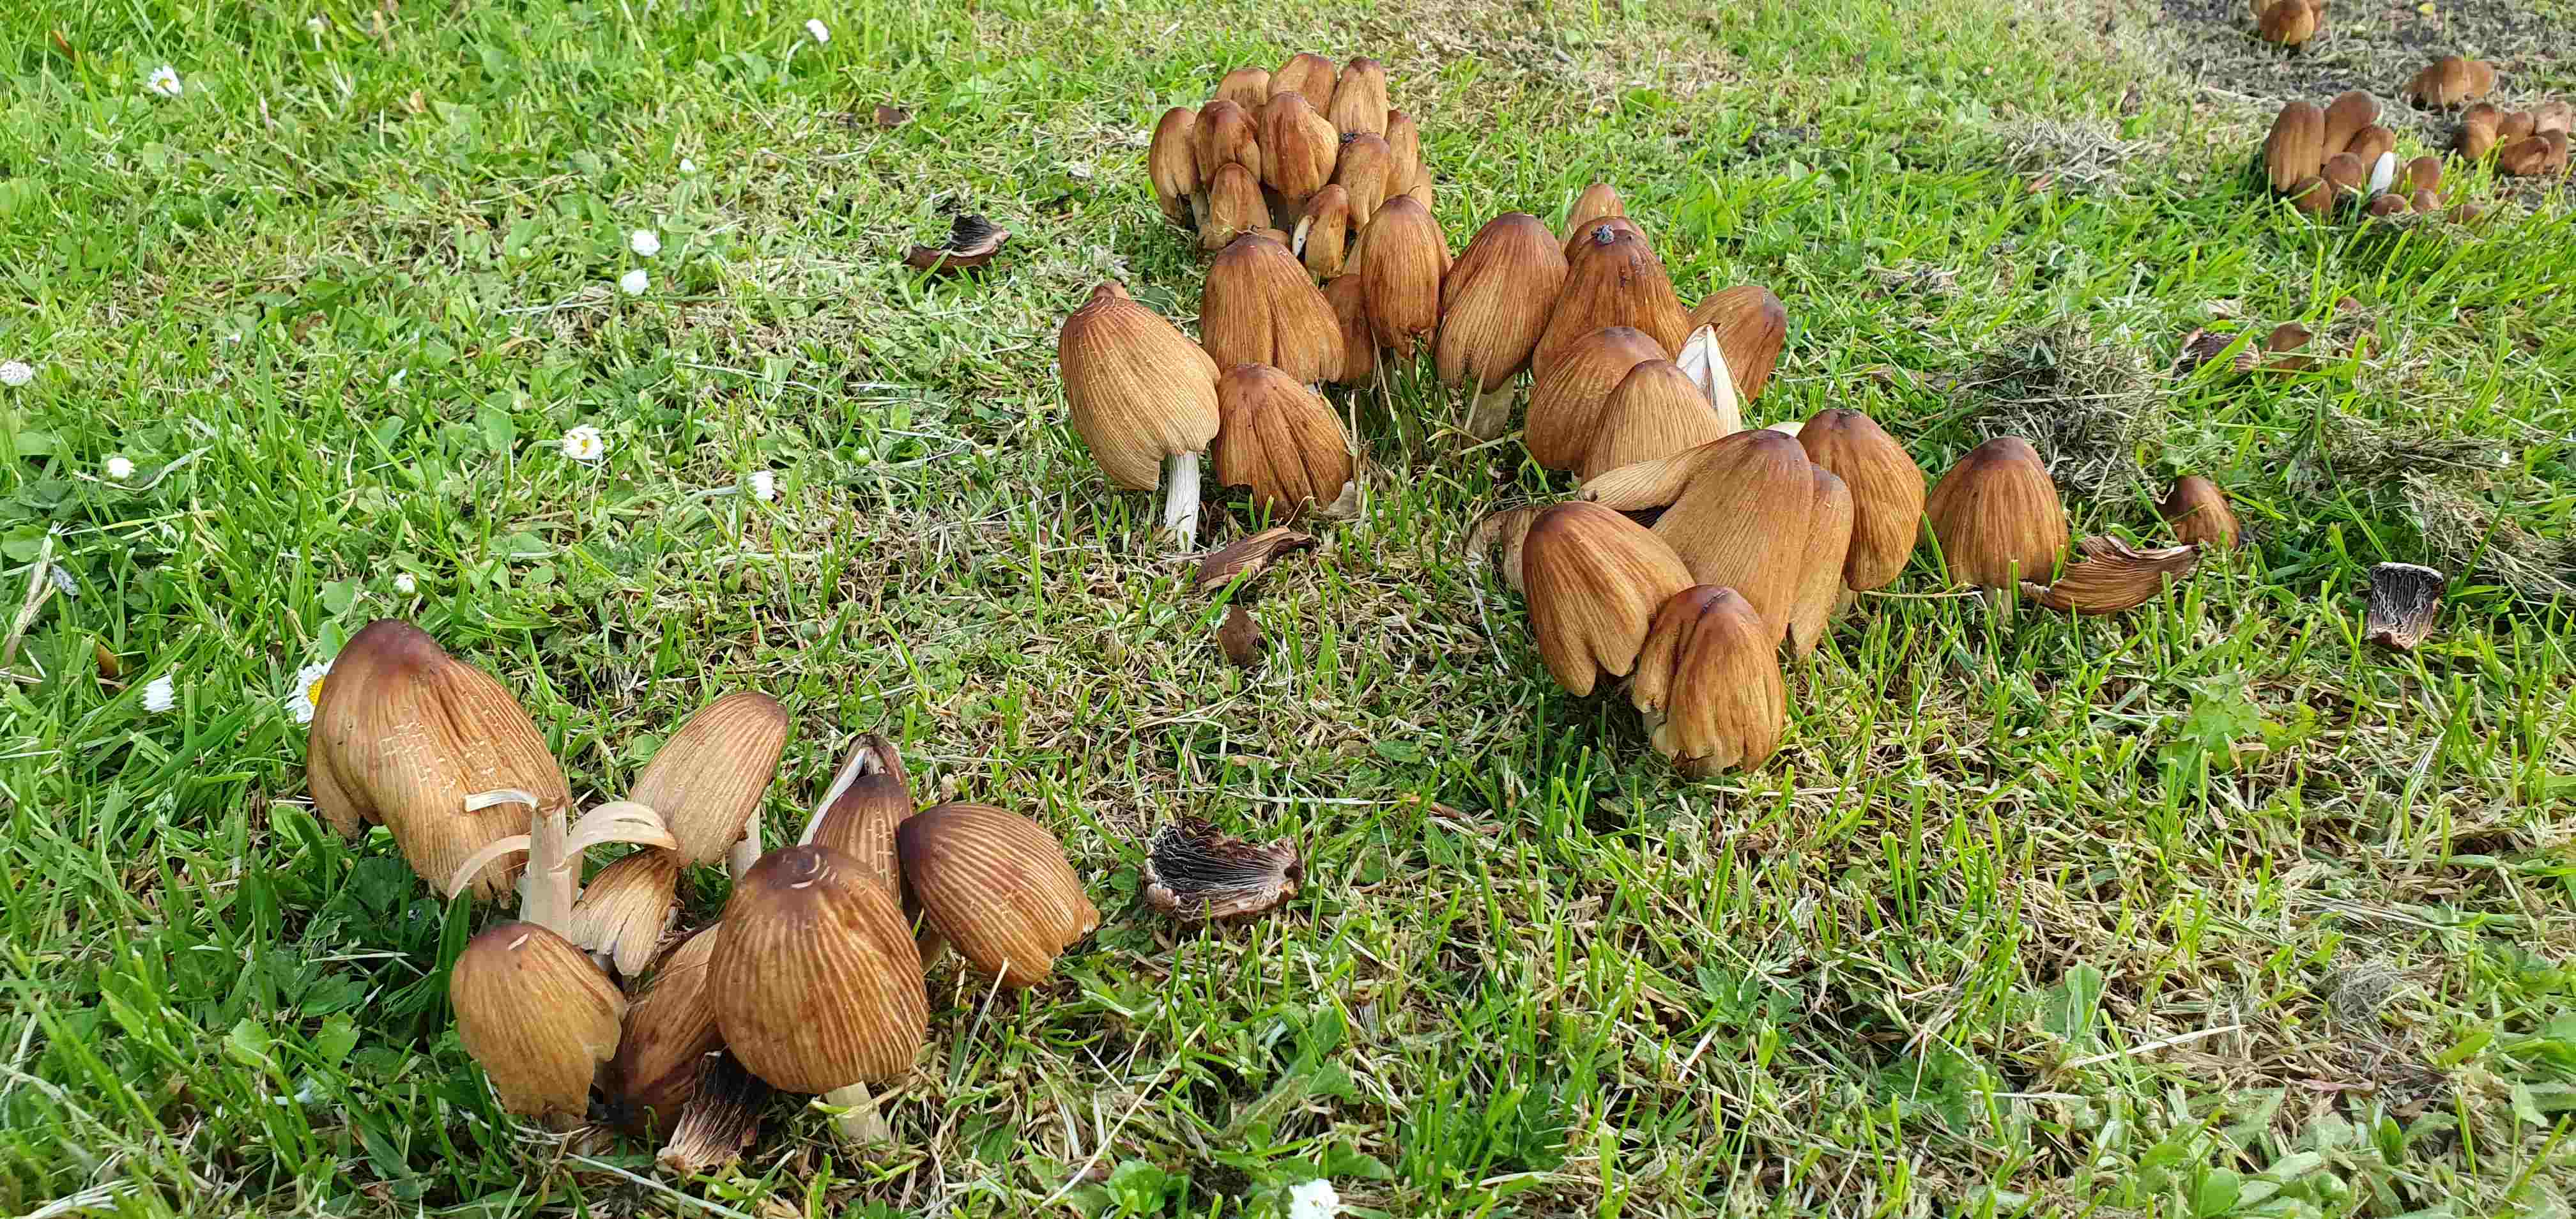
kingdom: Fungi
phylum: Basidiomycota
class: Agaricomycetes
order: Agaricales
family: Psathyrellaceae
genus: Coprinellus
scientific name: Coprinellus micaceus
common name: glimmer-blækhat
